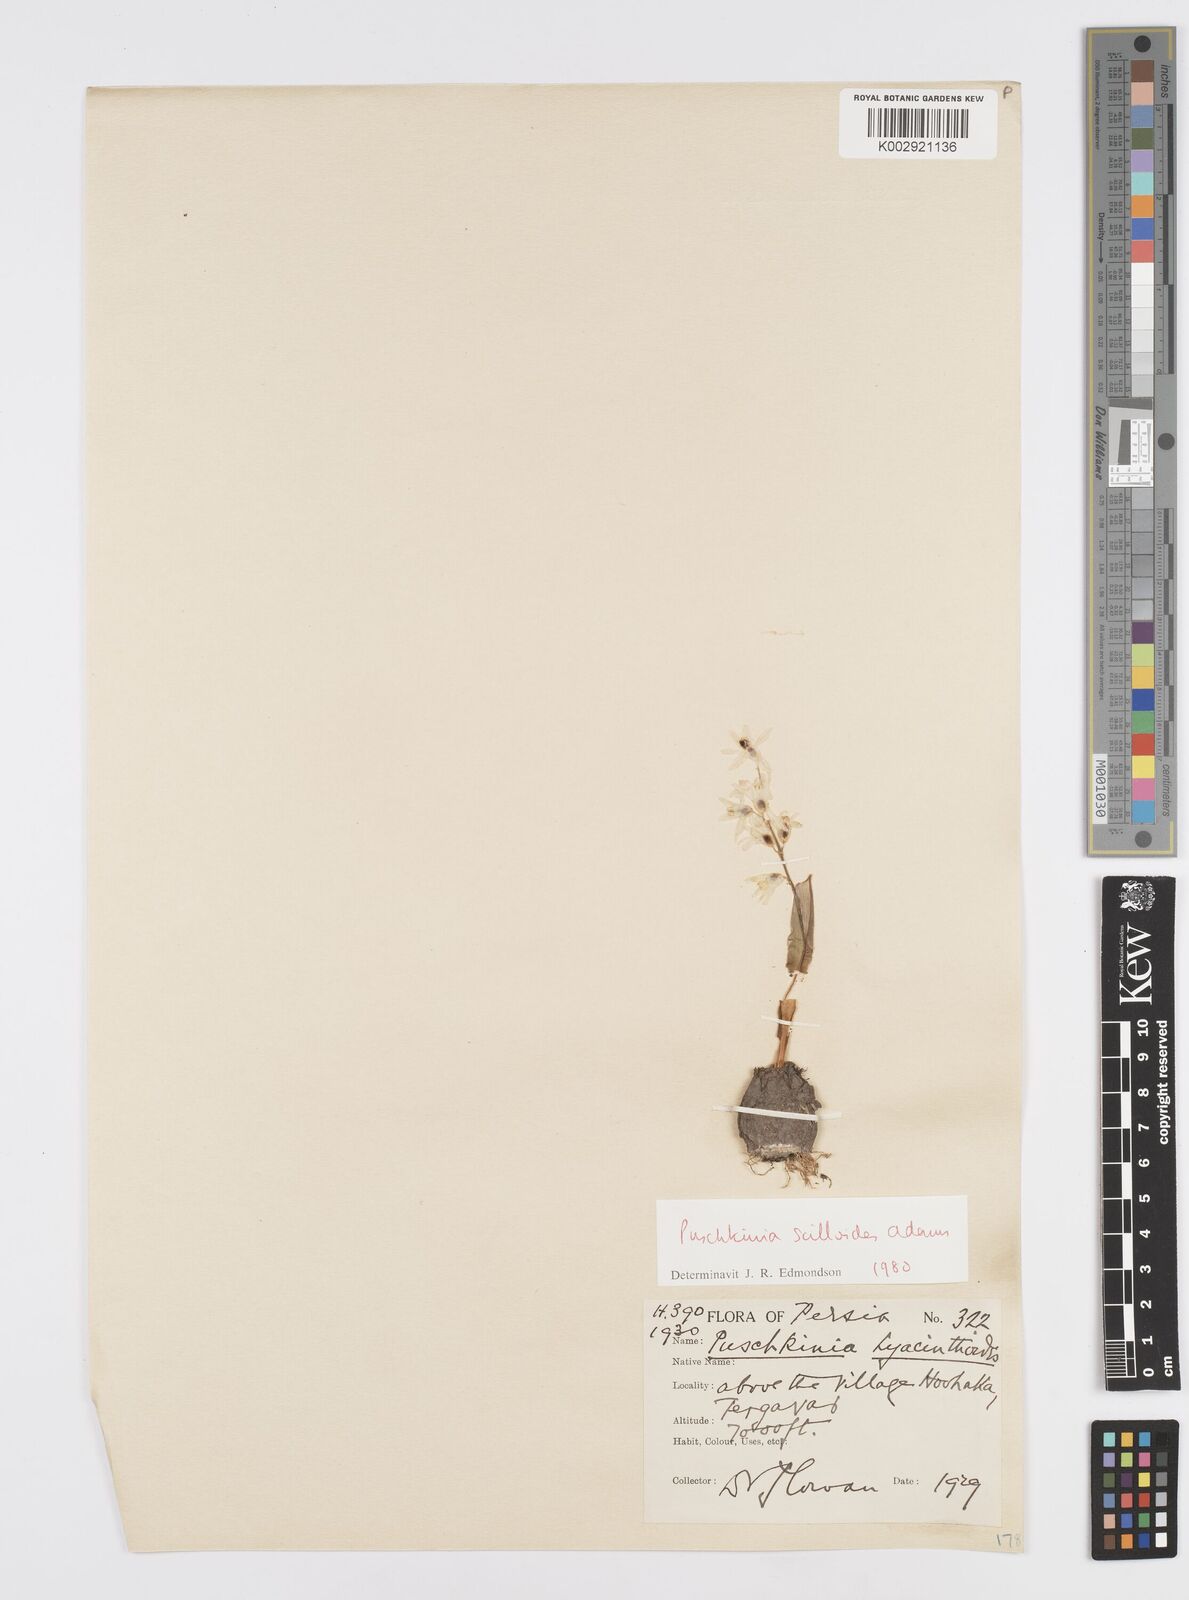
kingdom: Plantae
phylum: Tracheophyta
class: Liliopsida
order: Asparagales
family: Asparagaceae
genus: Puschkinia
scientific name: Puschkinia scilloides
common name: Striped squill
